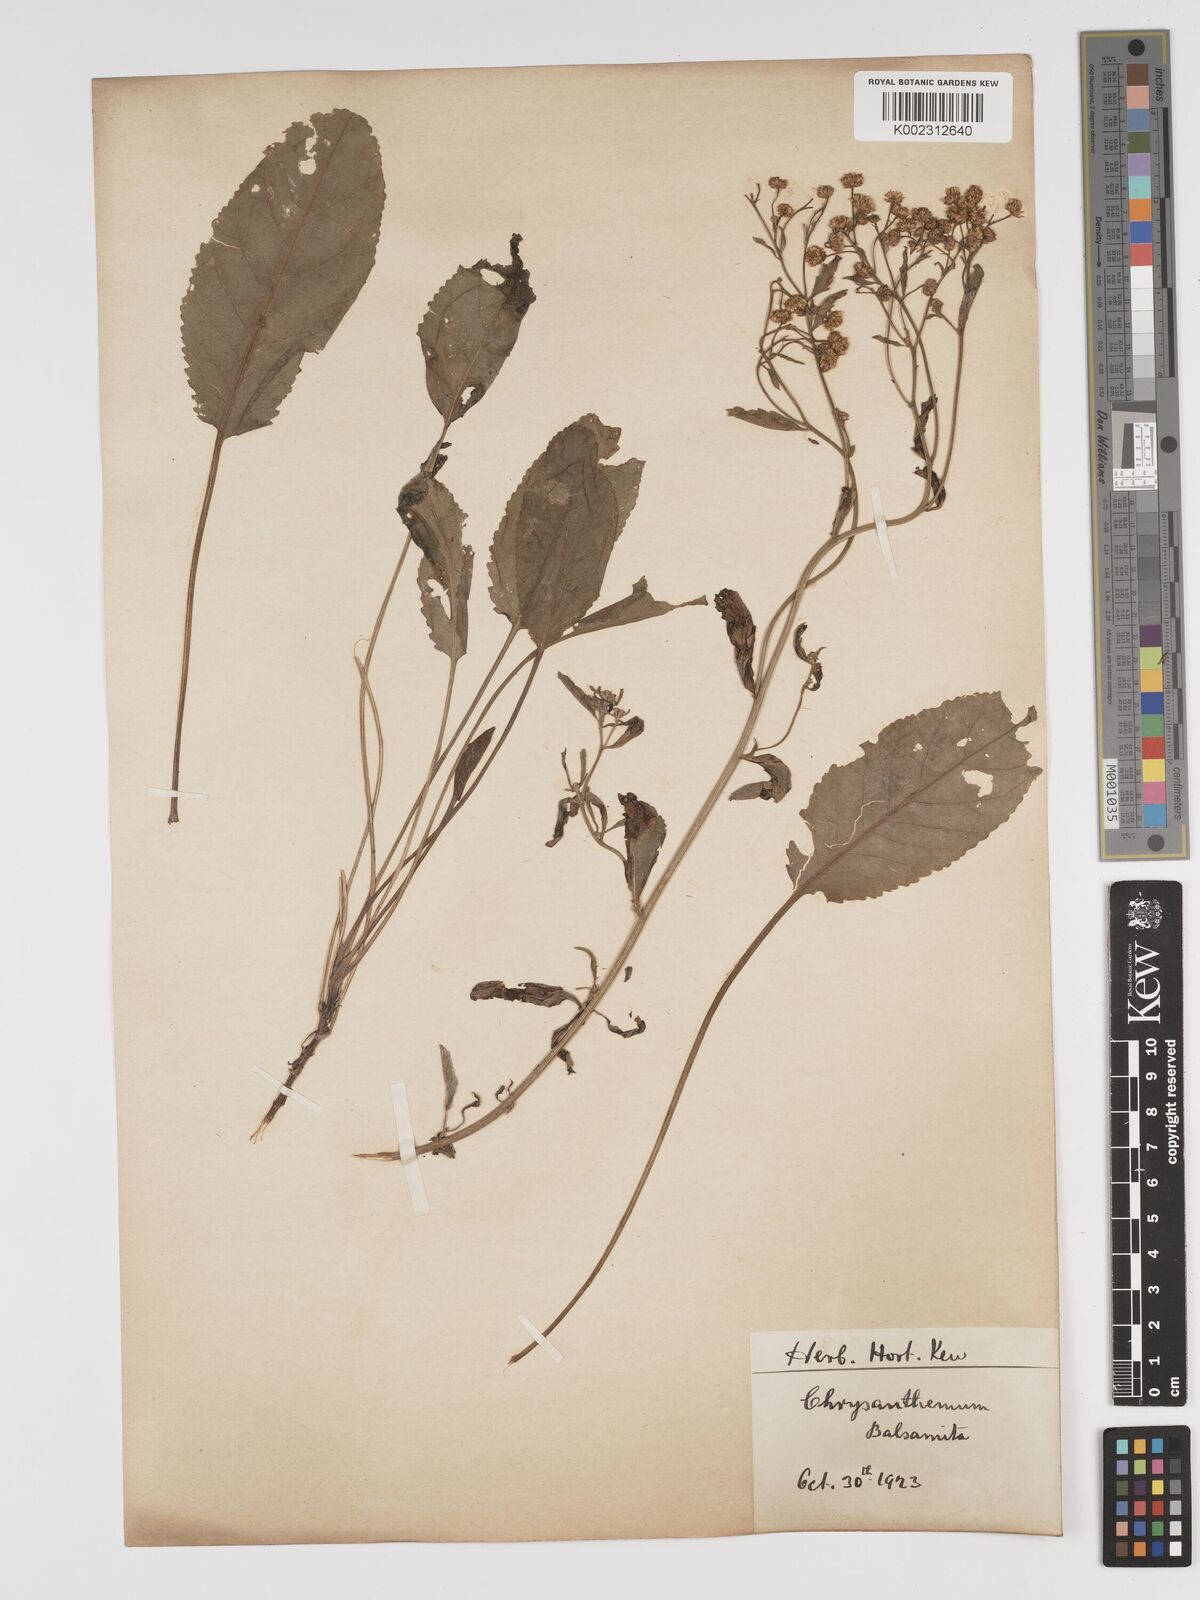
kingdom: Plantae
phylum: Tracheophyta
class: Magnoliopsida
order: Asterales
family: Asteraceae
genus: Tanacetum
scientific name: Tanacetum balsamita
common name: Costmary
